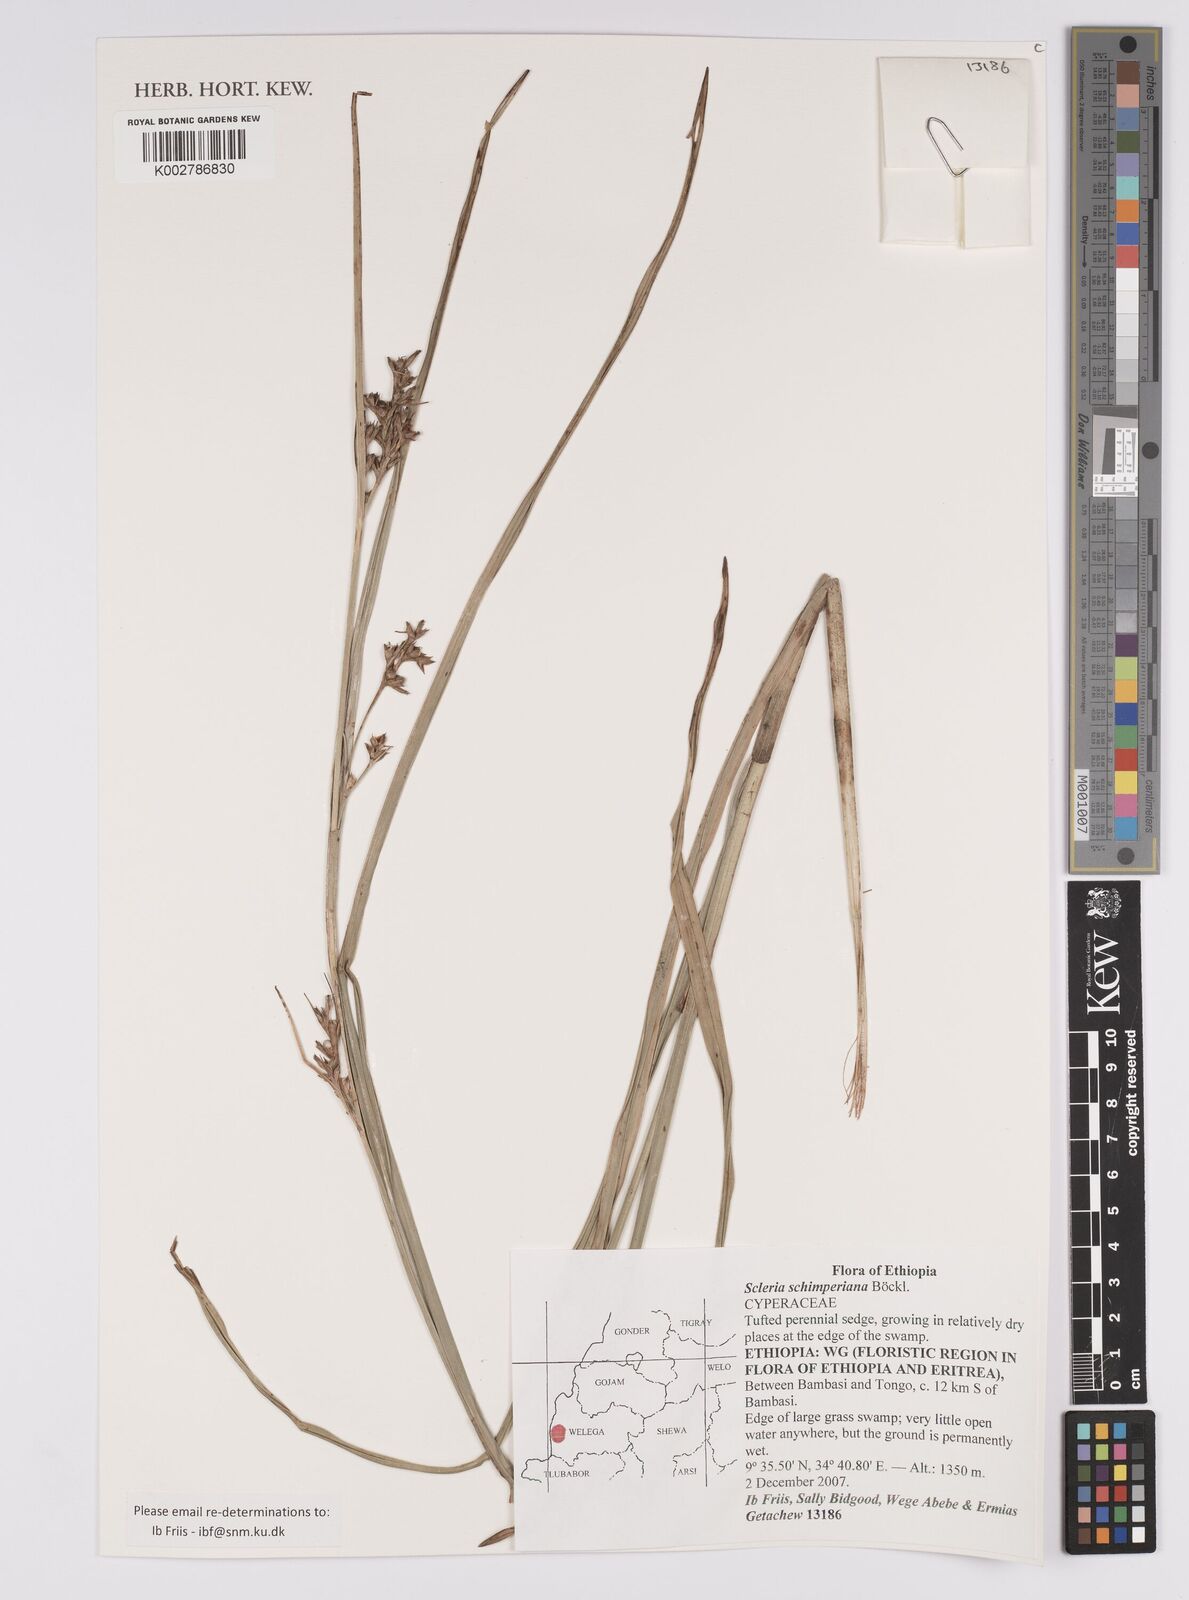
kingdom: Plantae
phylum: Tracheophyta
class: Liliopsida
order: Poales
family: Cyperaceae
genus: Scleria
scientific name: Scleria schimperiana
